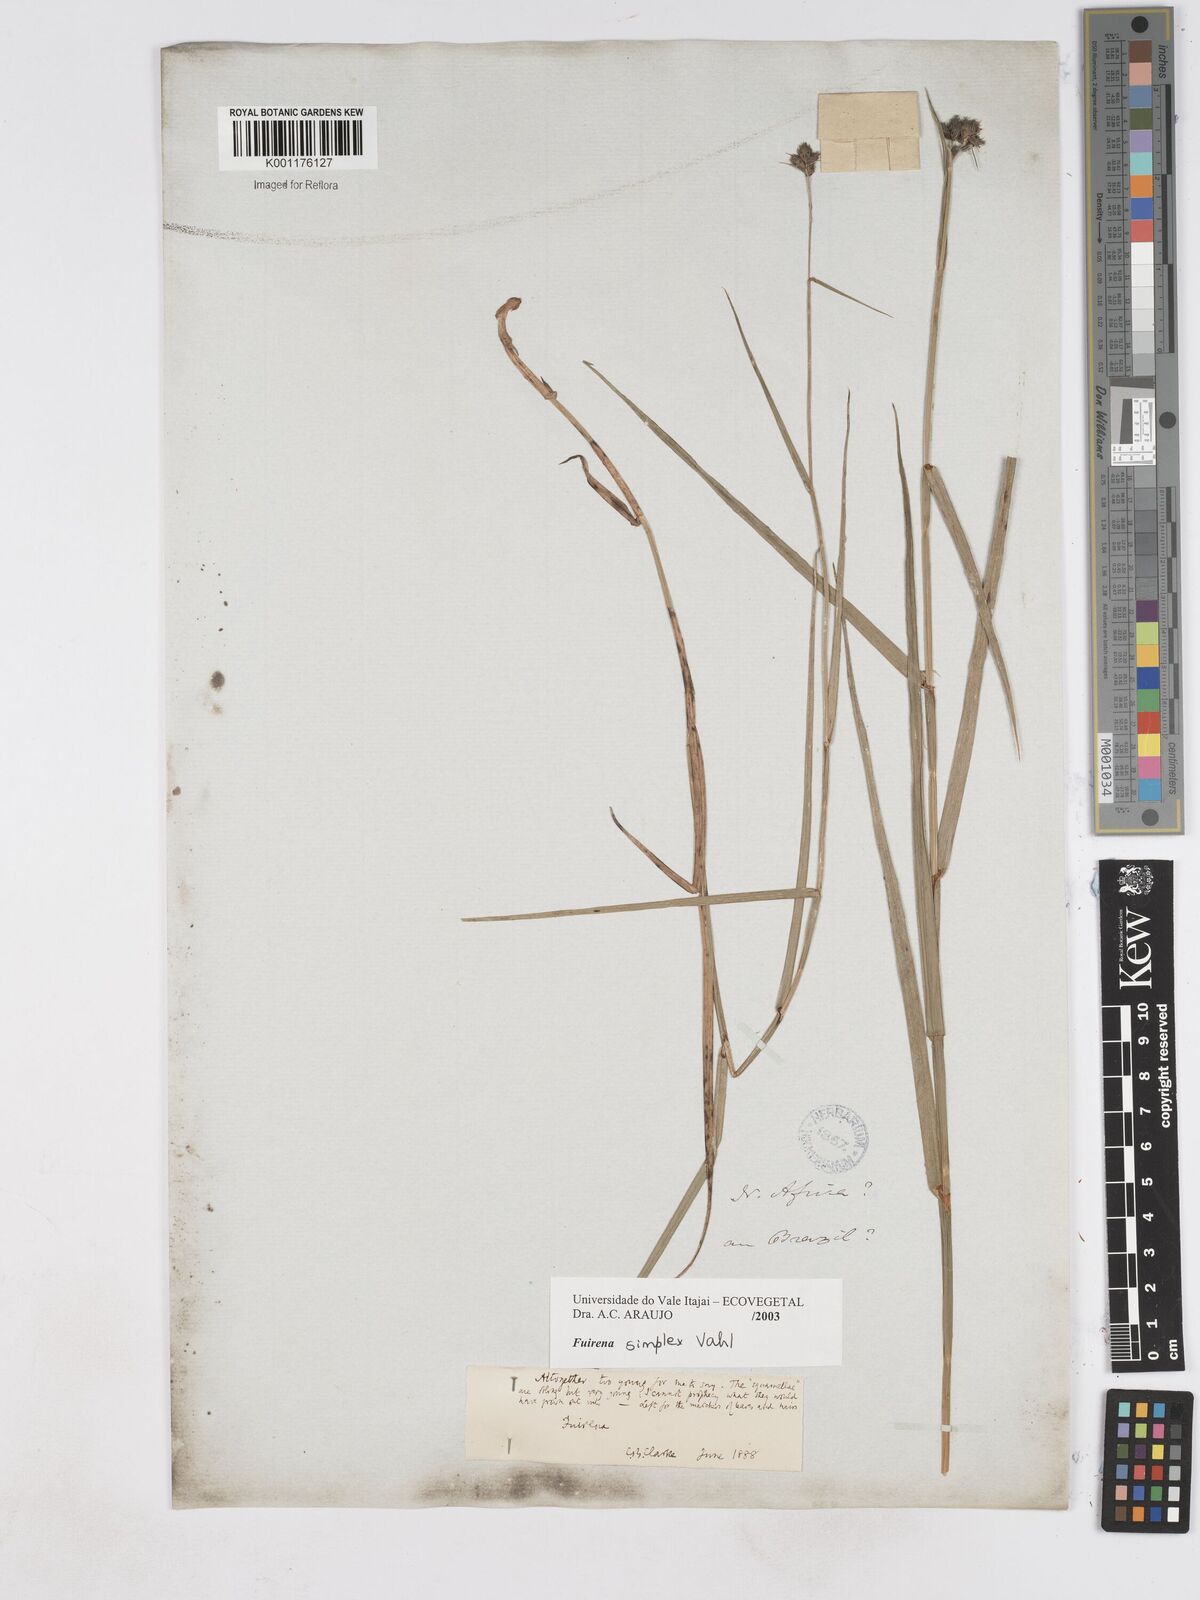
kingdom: Plantae
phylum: Tracheophyta
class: Liliopsida
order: Poales
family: Cyperaceae
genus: Fuirena
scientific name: Fuirena simplex
